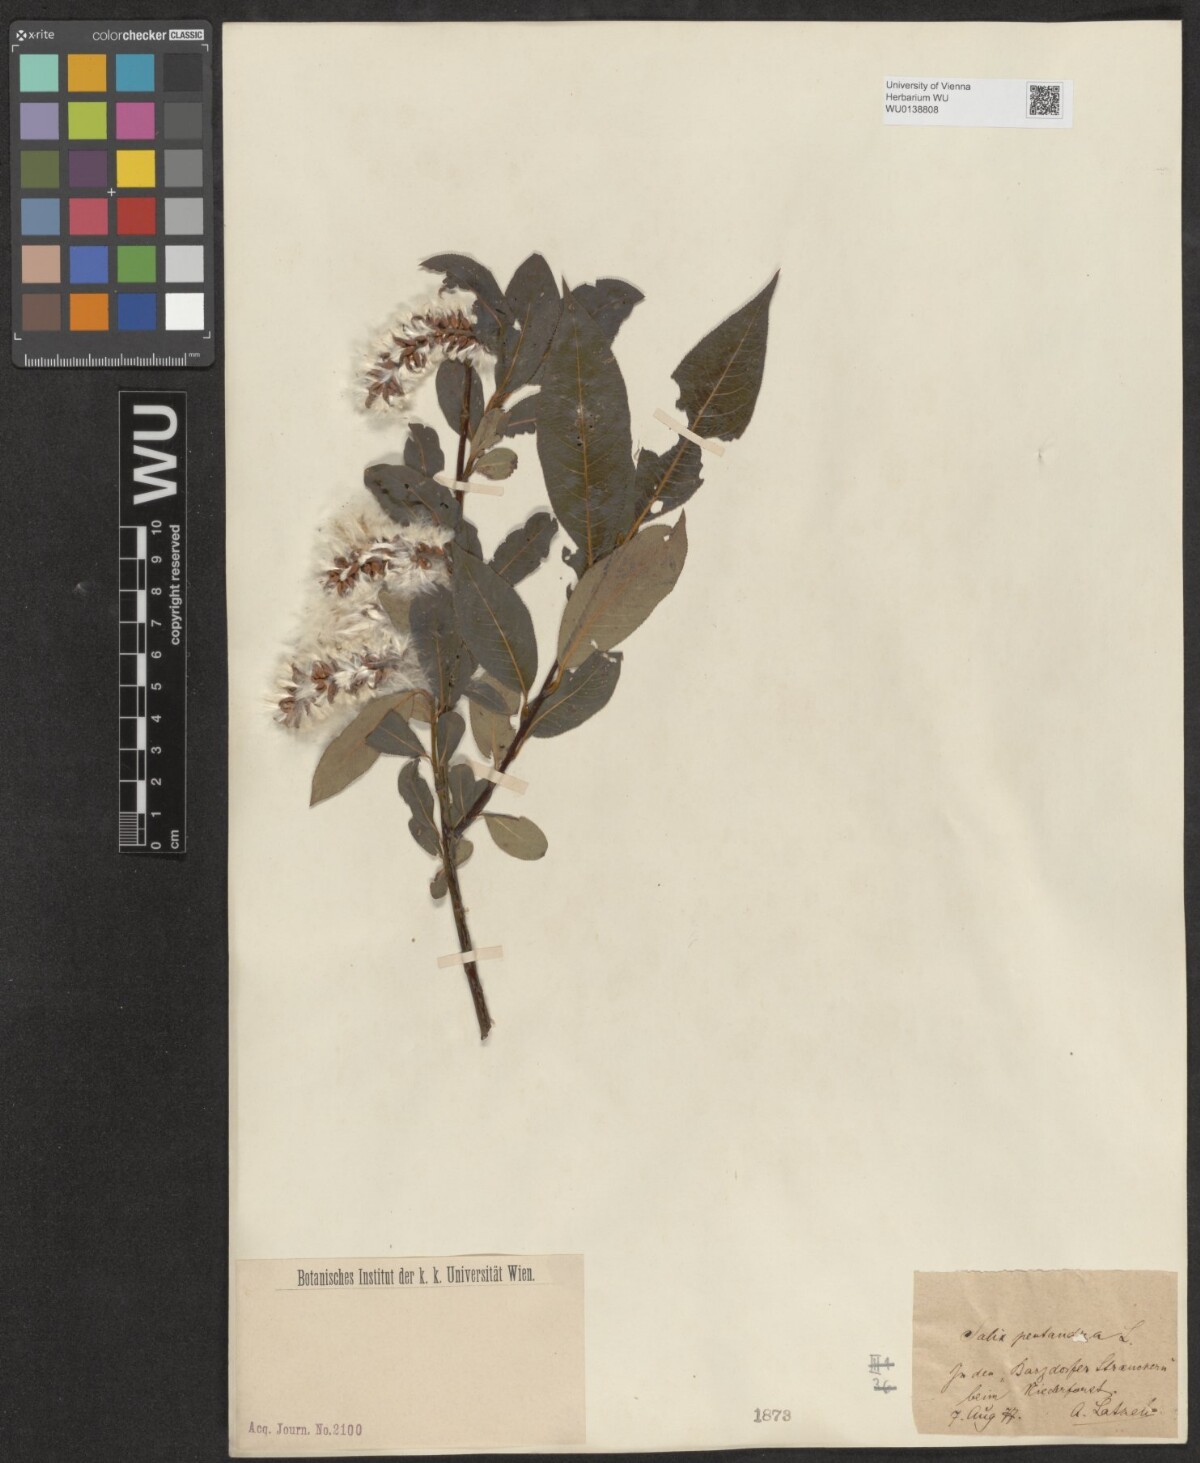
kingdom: Plantae
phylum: Tracheophyta
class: Magnoliopsida
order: Malpighiales
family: Salicaceae
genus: Salix
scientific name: Salix pentandra
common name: Bay willow
